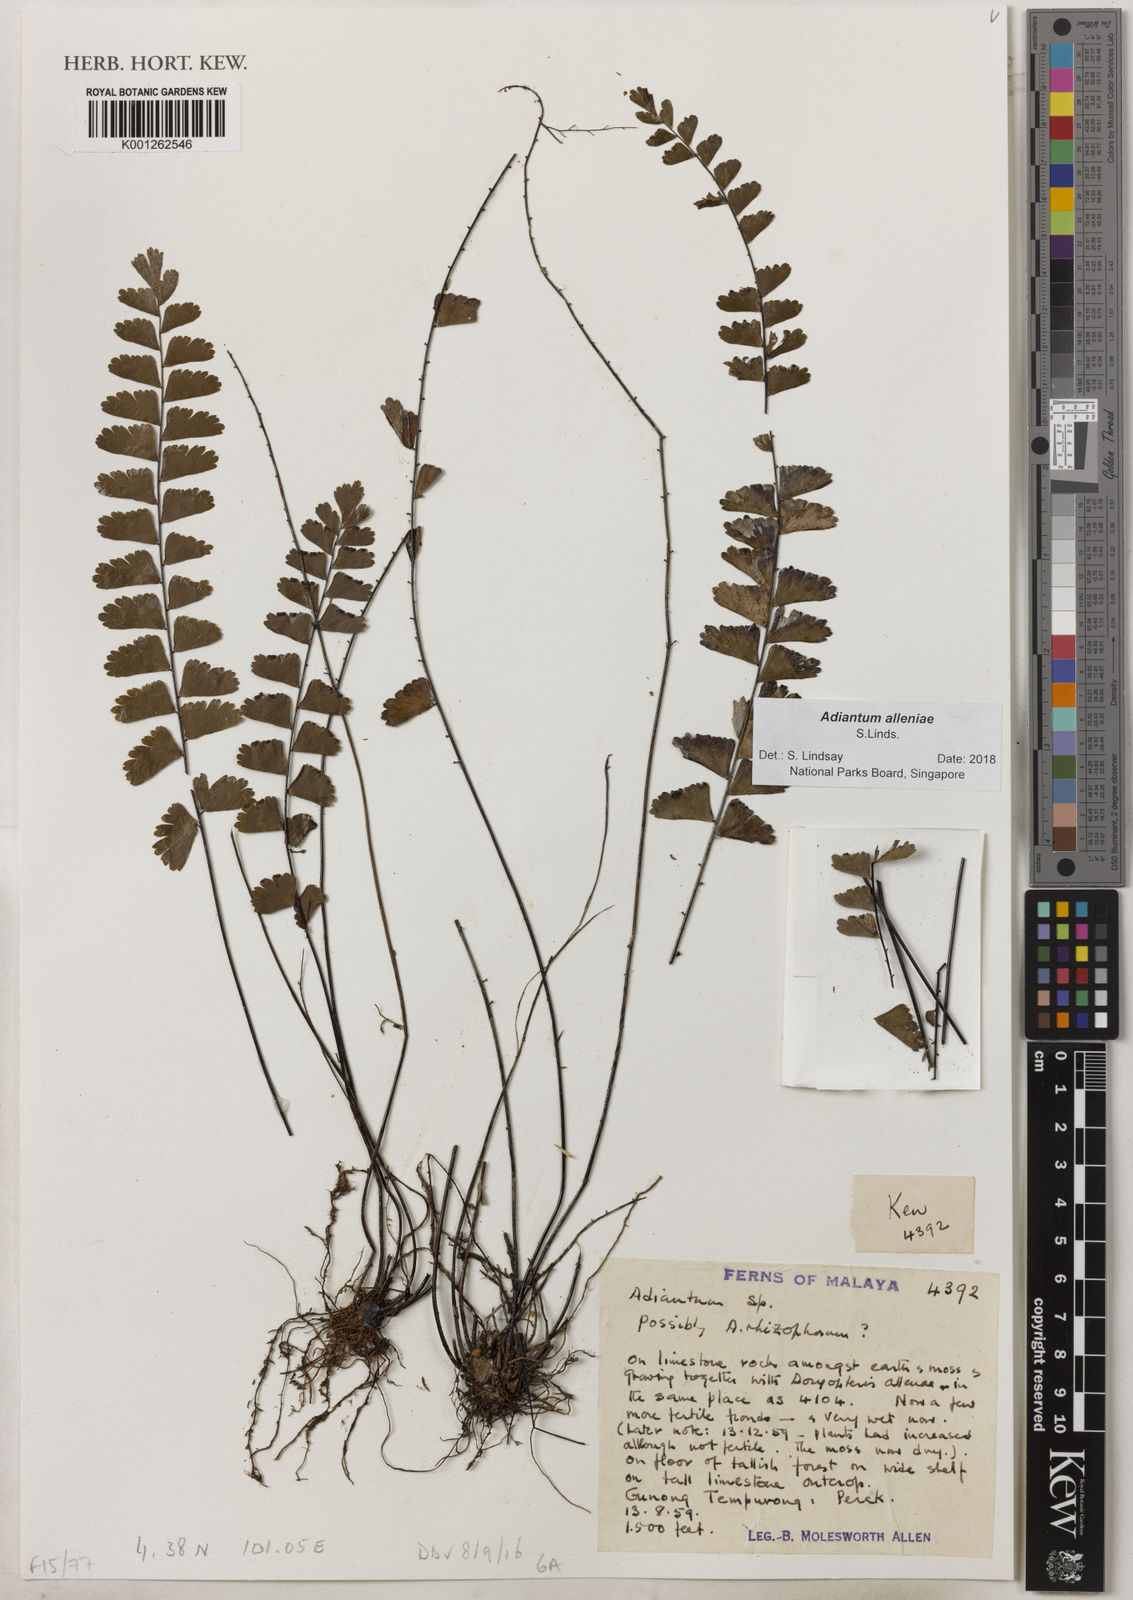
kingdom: Plantae
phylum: Tracheophyta
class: Polypodiopsida
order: Polypodiales
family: Pteridaceae
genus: Adiantum
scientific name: Adiantum alleniae
